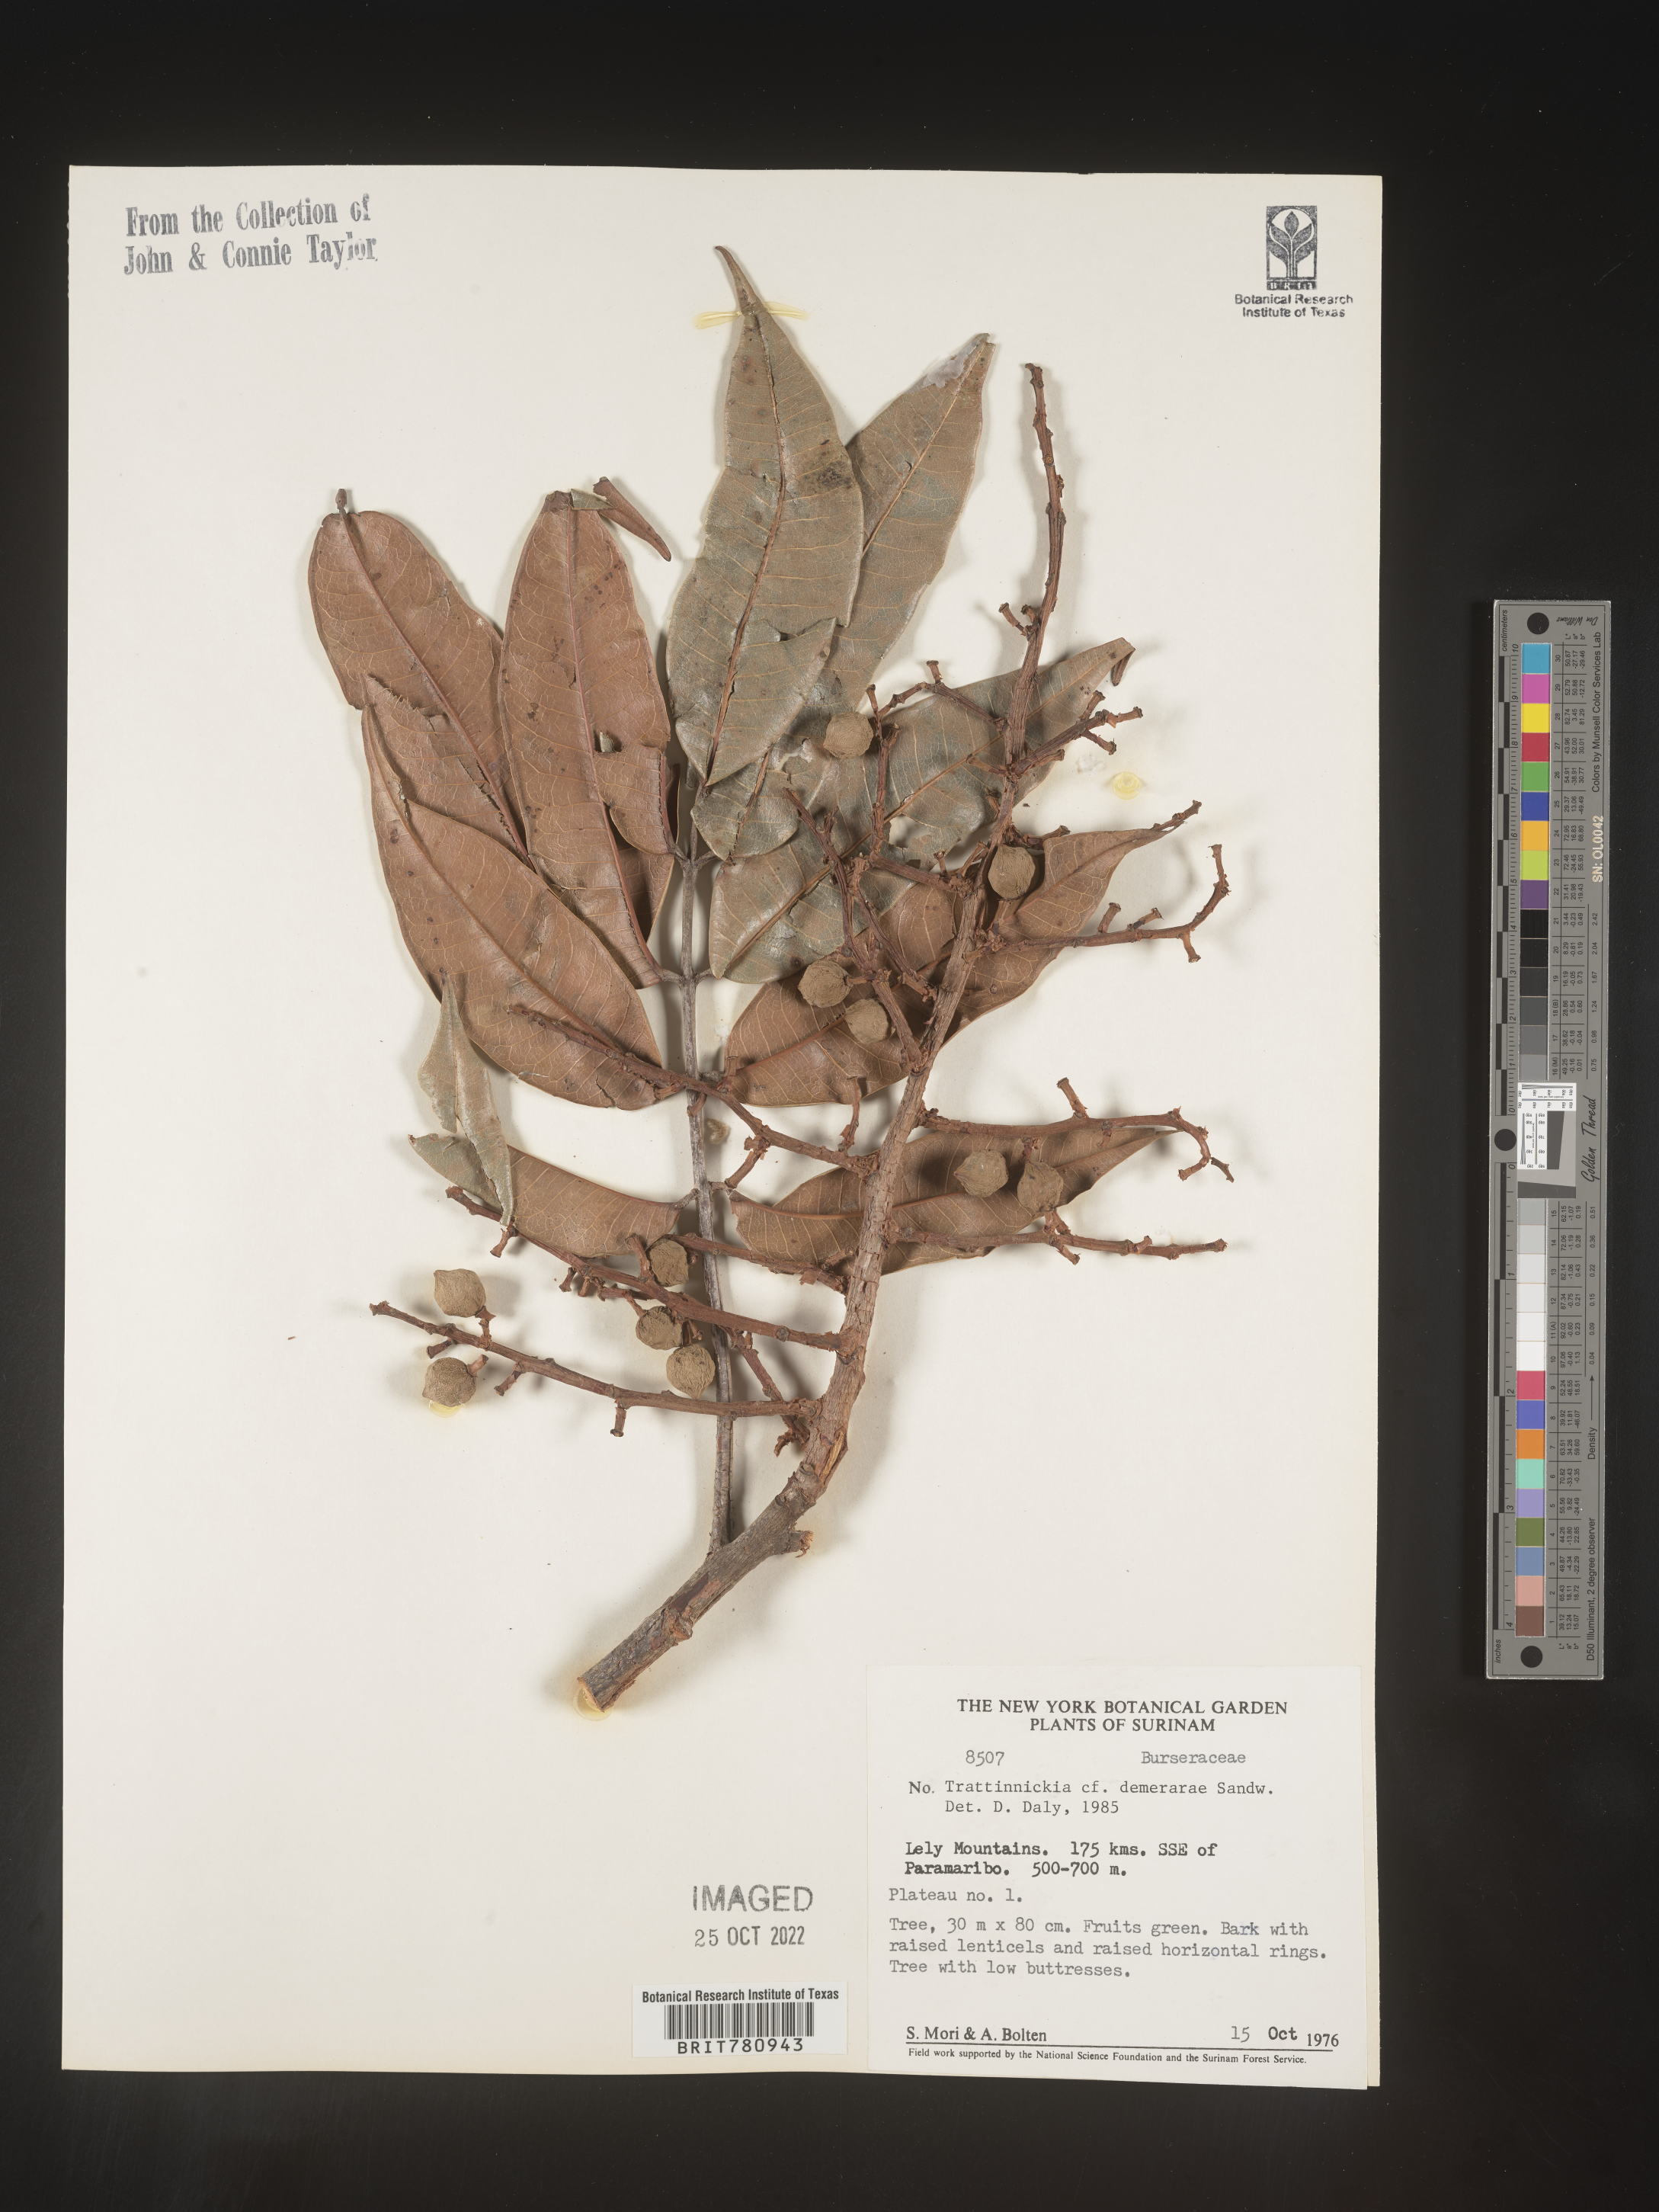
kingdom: Plantae
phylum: Tracheophyta
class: Magnoliopsida
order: Sapindales
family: Burseraceae
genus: Trattinnickia
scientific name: Trattinnickia
